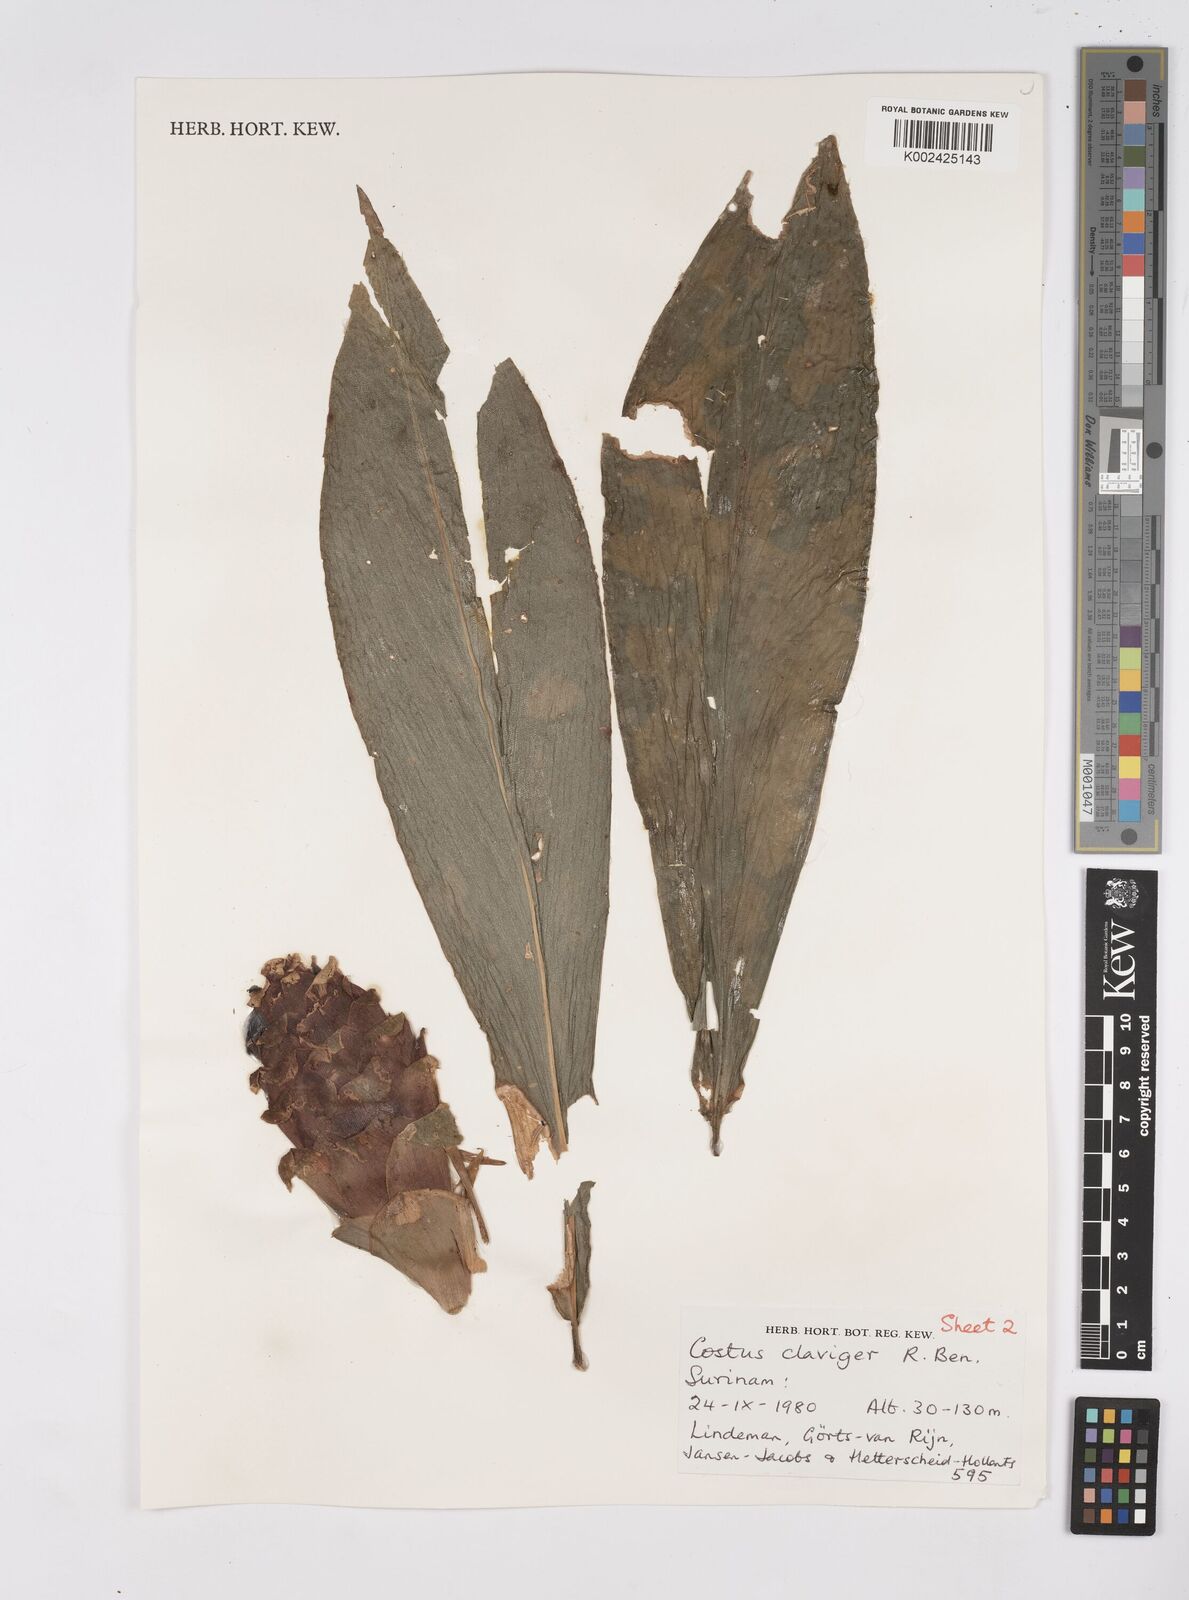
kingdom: Plantae
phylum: Tracheophyta
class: Liliopsida
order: Zingiberales
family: Costaceae
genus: Costus
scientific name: Costus claviger
